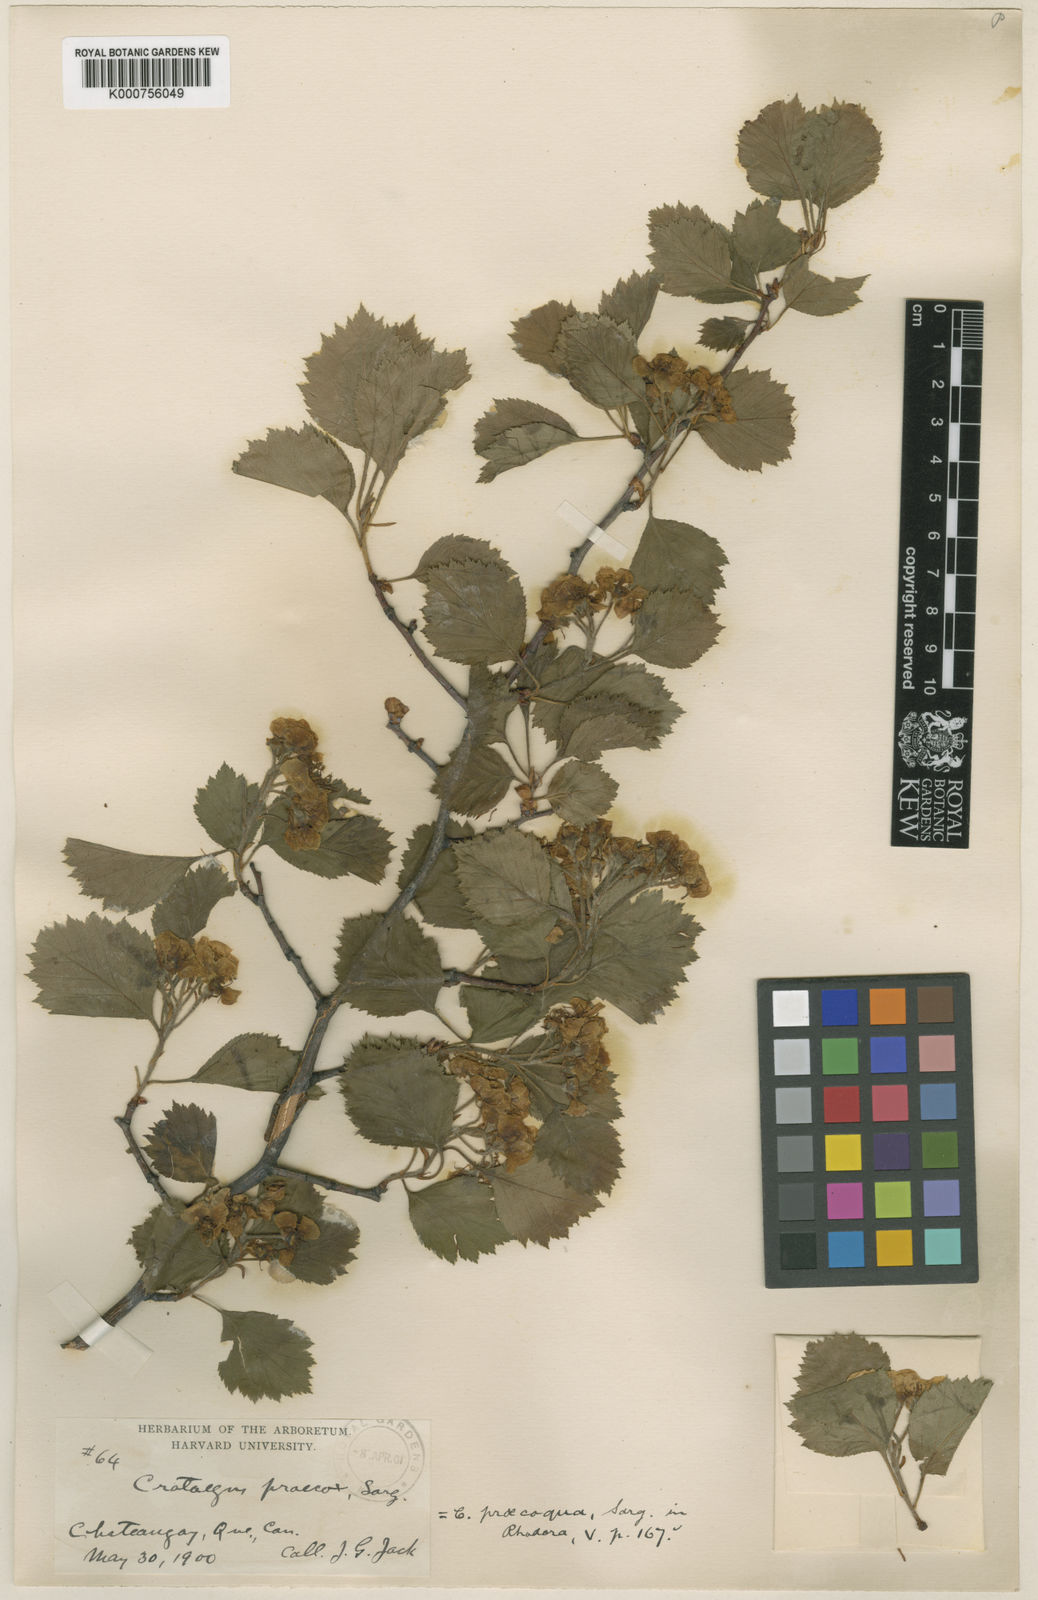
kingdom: Plantae
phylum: Tracheophyta
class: Magnoliopsida
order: Rosales
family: Rosaceae
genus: Crataegus
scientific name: Crataegus chrysocarpa
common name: Fire-berry hawthorn
